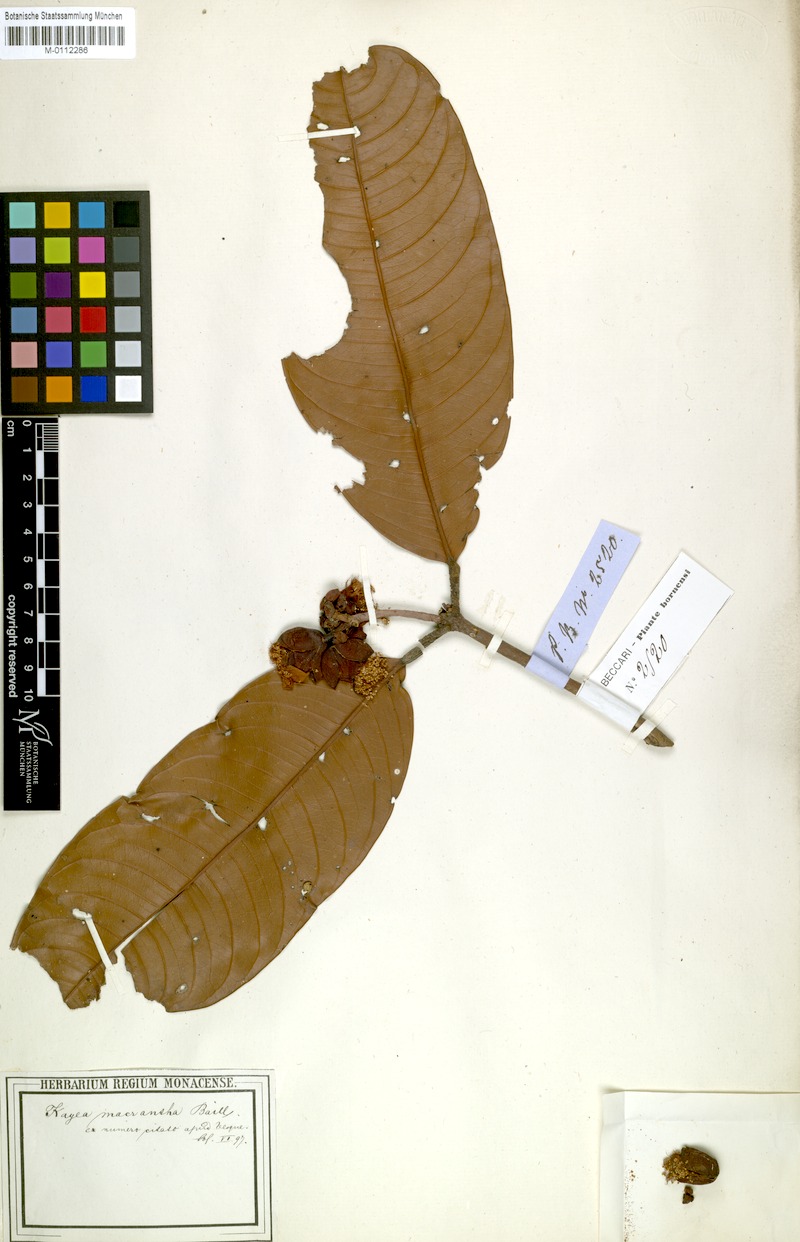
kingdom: Plantae
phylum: Tracheophyta
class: Magnoliopsida
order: Malpighiales
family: Calophyllaceae
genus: Kayea
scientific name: Kayea macrantha
